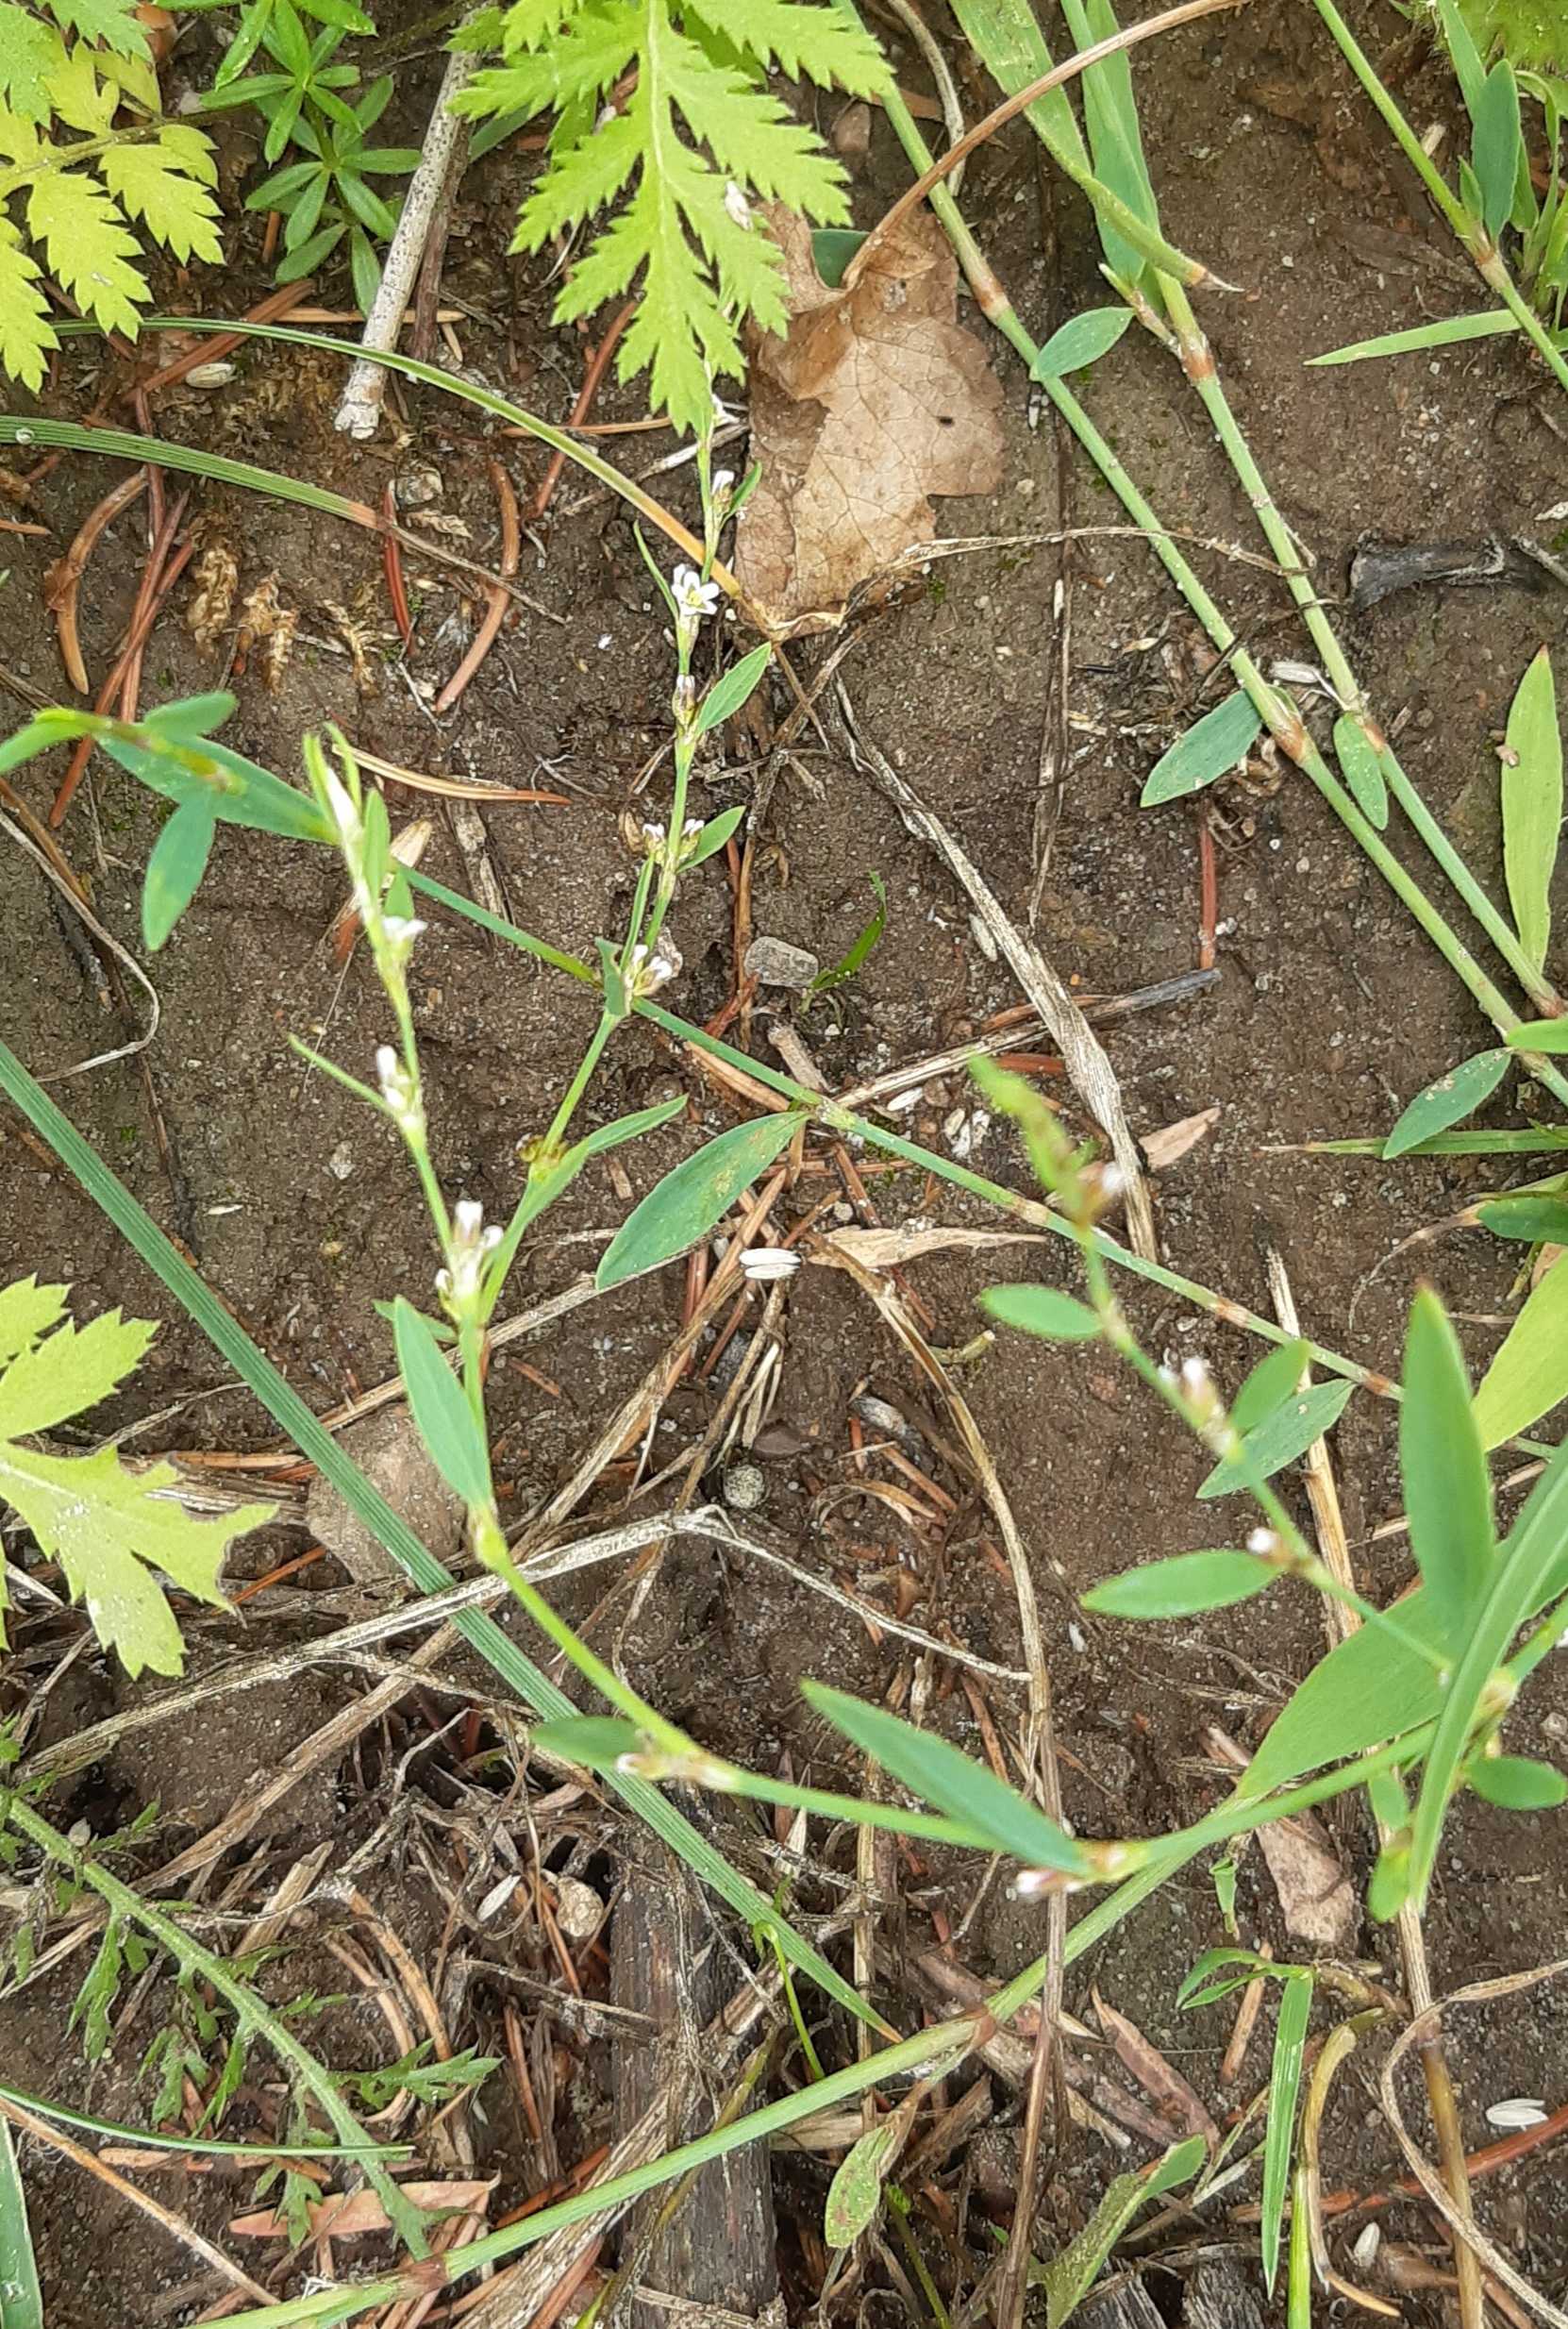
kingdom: Plantae
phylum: Tracheophyta
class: Magnoliopsida
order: Caryophyllales
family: Polygonaceae
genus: Polygonum
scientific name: Polygonum aviculare
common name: Vej-pileurt
